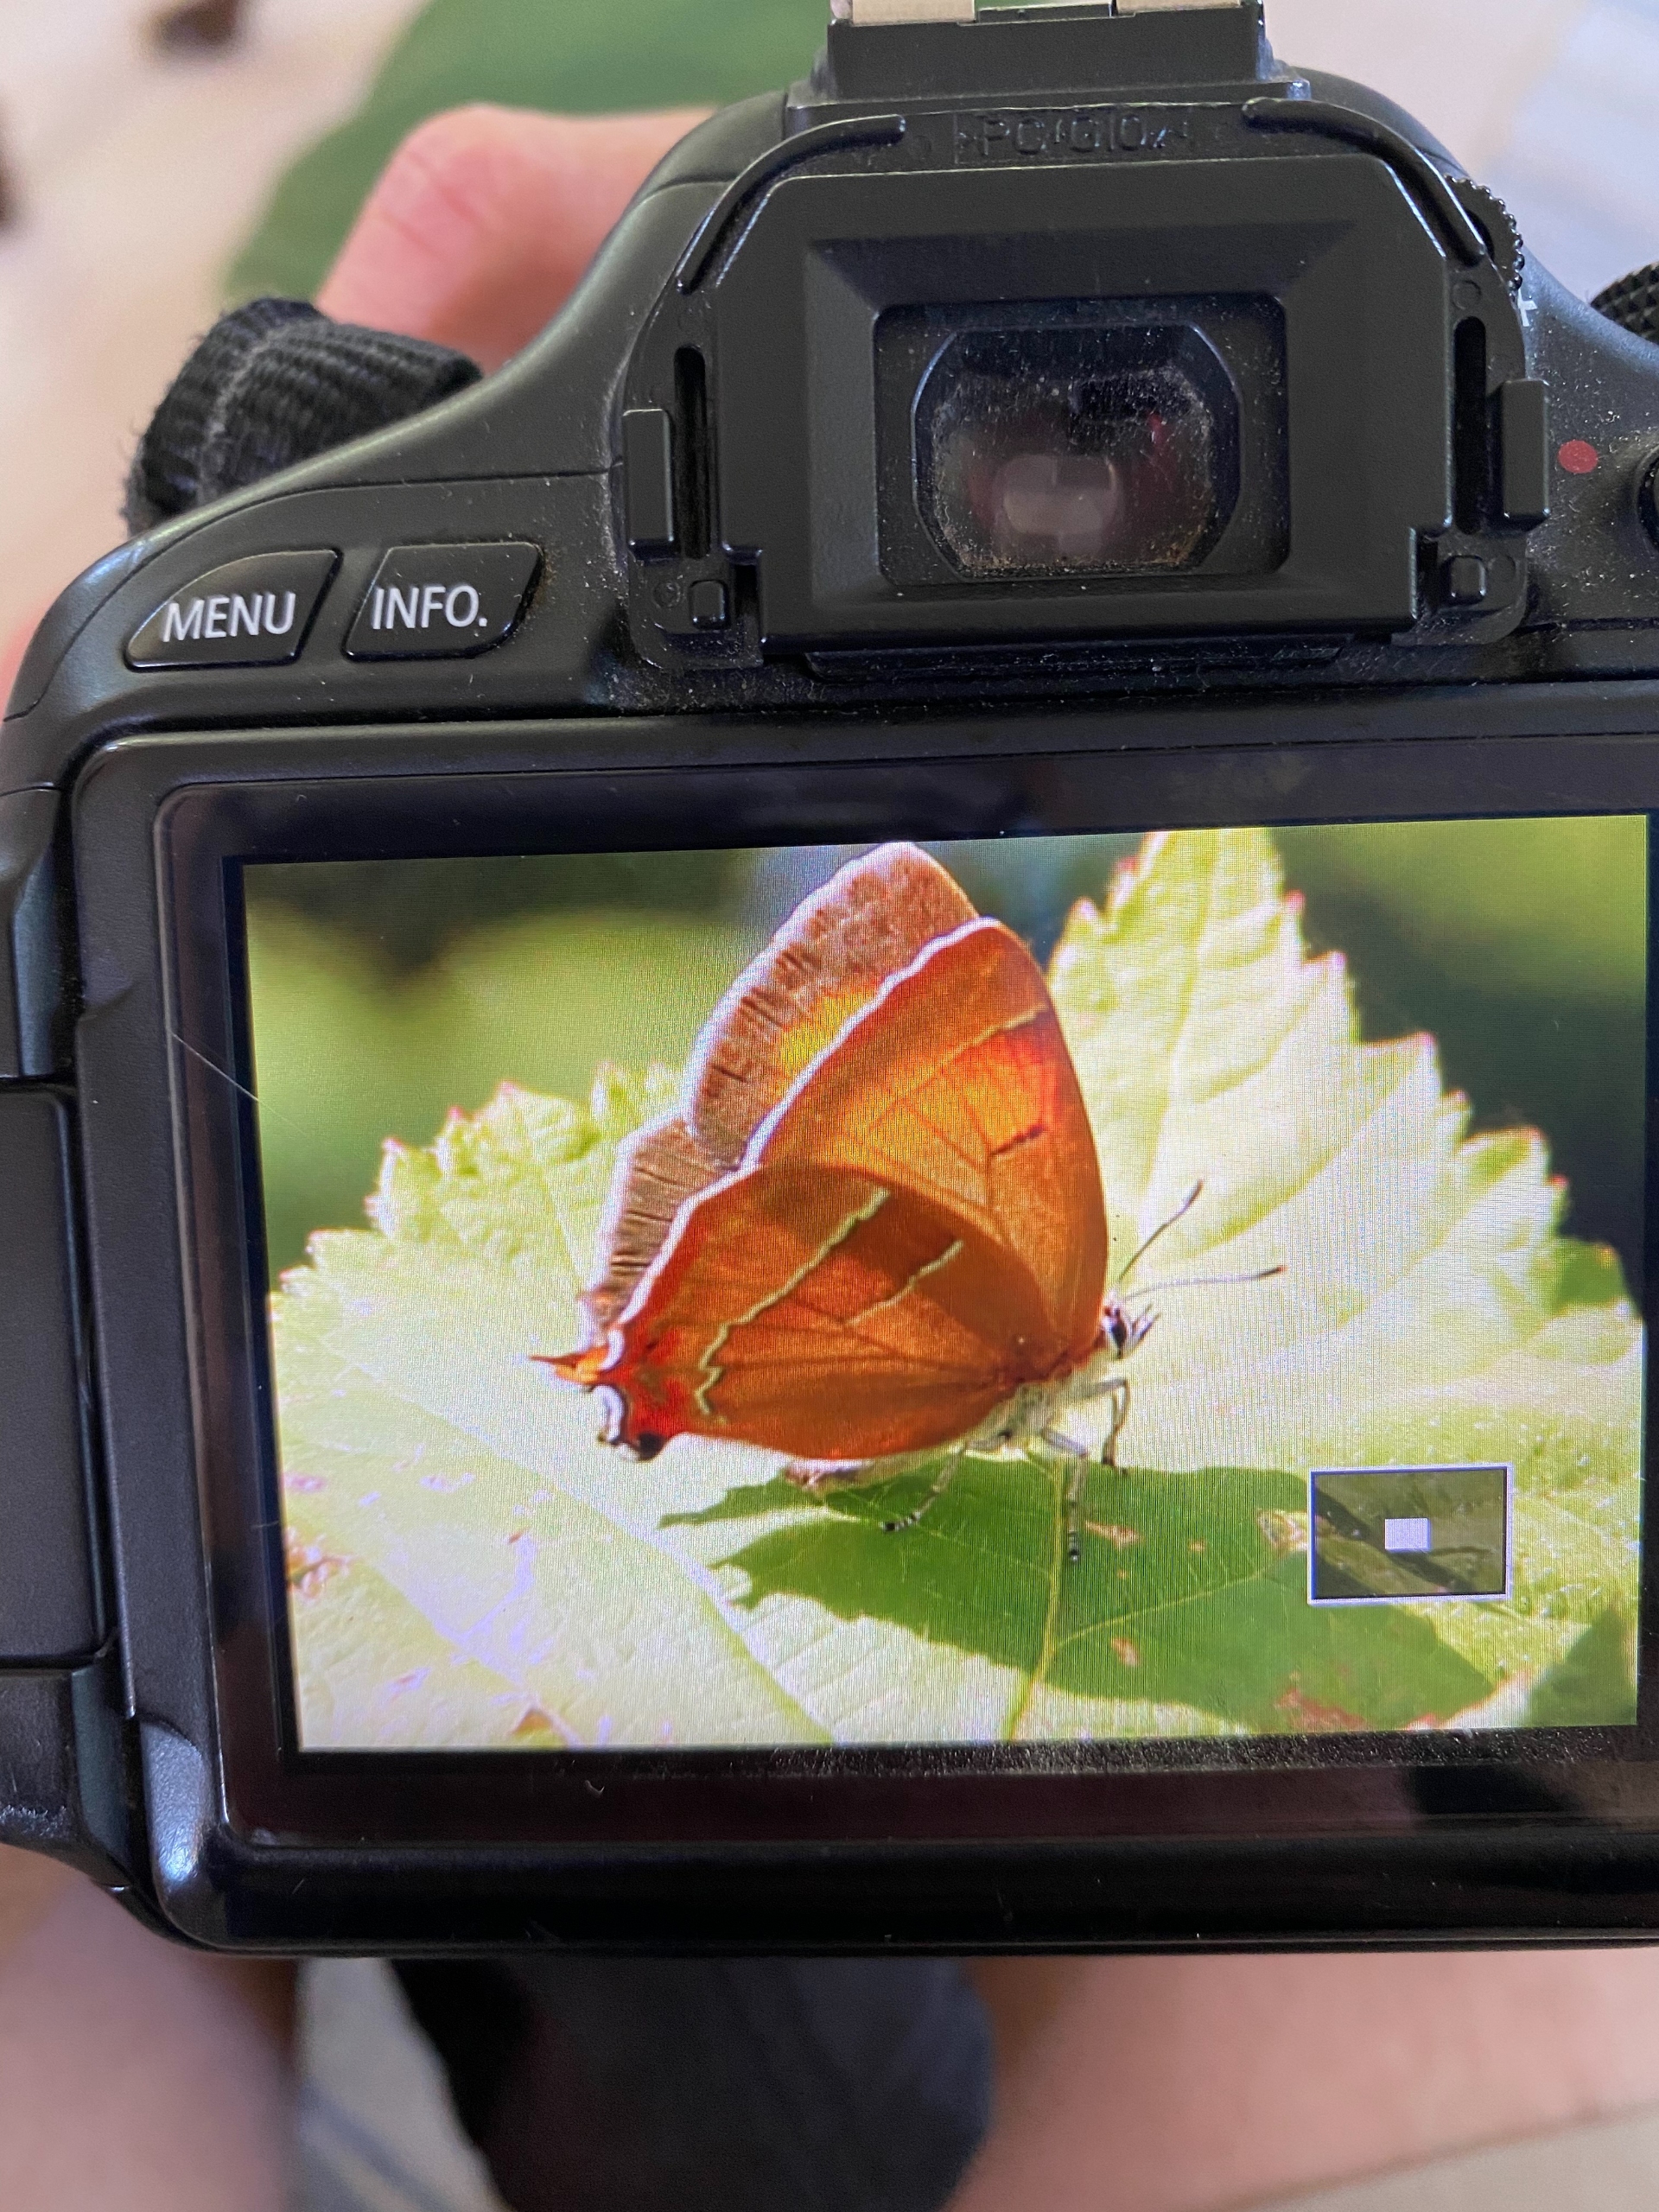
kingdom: Animalia
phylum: Arthropoda
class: Insecta
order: Lepidoptera
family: Lycaenidae
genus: Thecla
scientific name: Thecla betulae
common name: Guldhale
